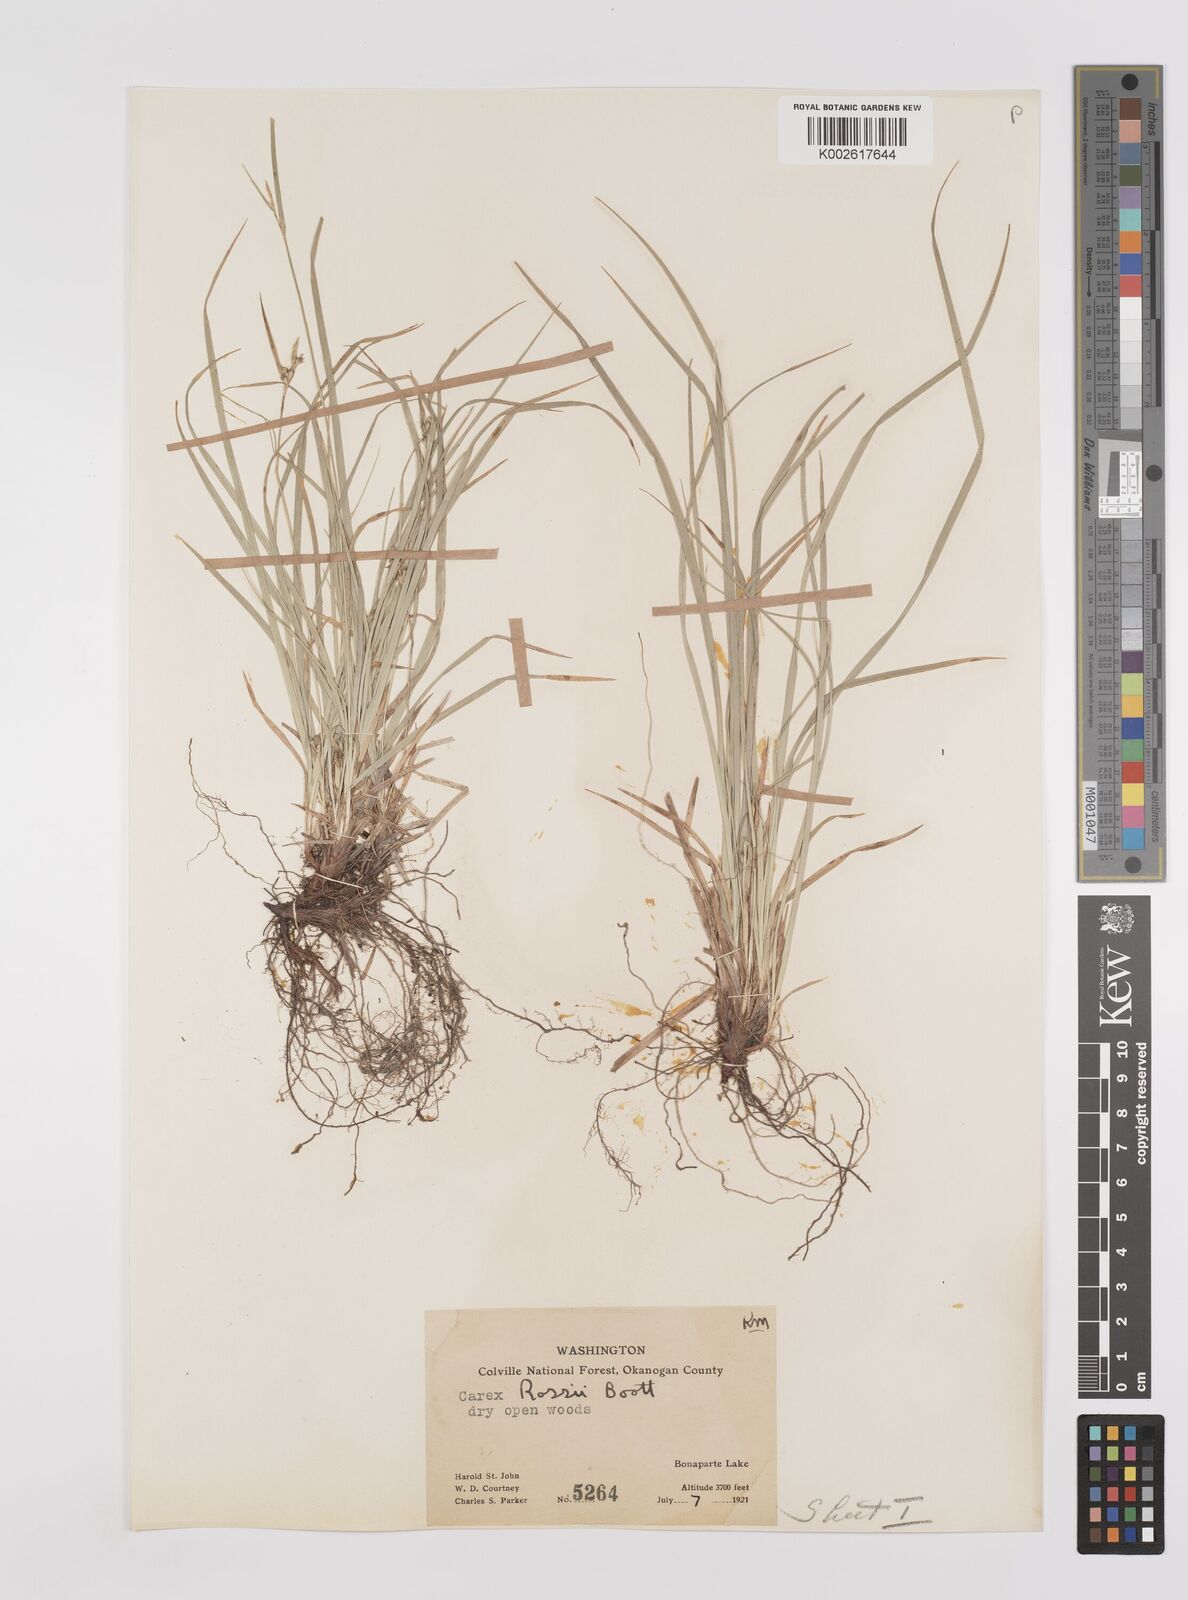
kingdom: Plantae
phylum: Tracheophyta
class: Liliopsida
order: Poales
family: Cyperaceae
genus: Carex
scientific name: Carex rossii
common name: Ross' sedge
